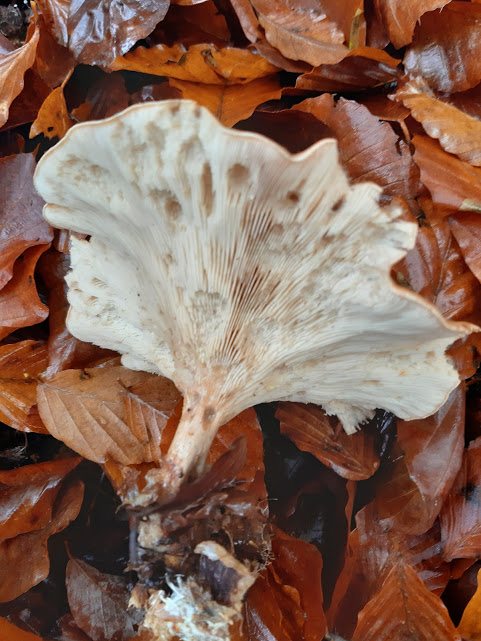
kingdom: Fungi
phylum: Basidiomycota
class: Agaricomycetes
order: Agaricales
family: Tricholomataceae
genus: Paralepista
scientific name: Paralepista
